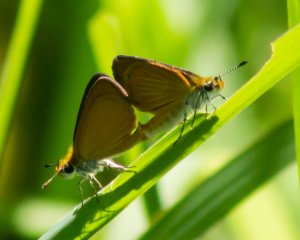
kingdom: Animalia
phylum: Arthropoda
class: Insecta
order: Lepidoptera
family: Hesperiidae
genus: Ancyloxypha
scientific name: Ancyloxypha numitor
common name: Least Skipper
